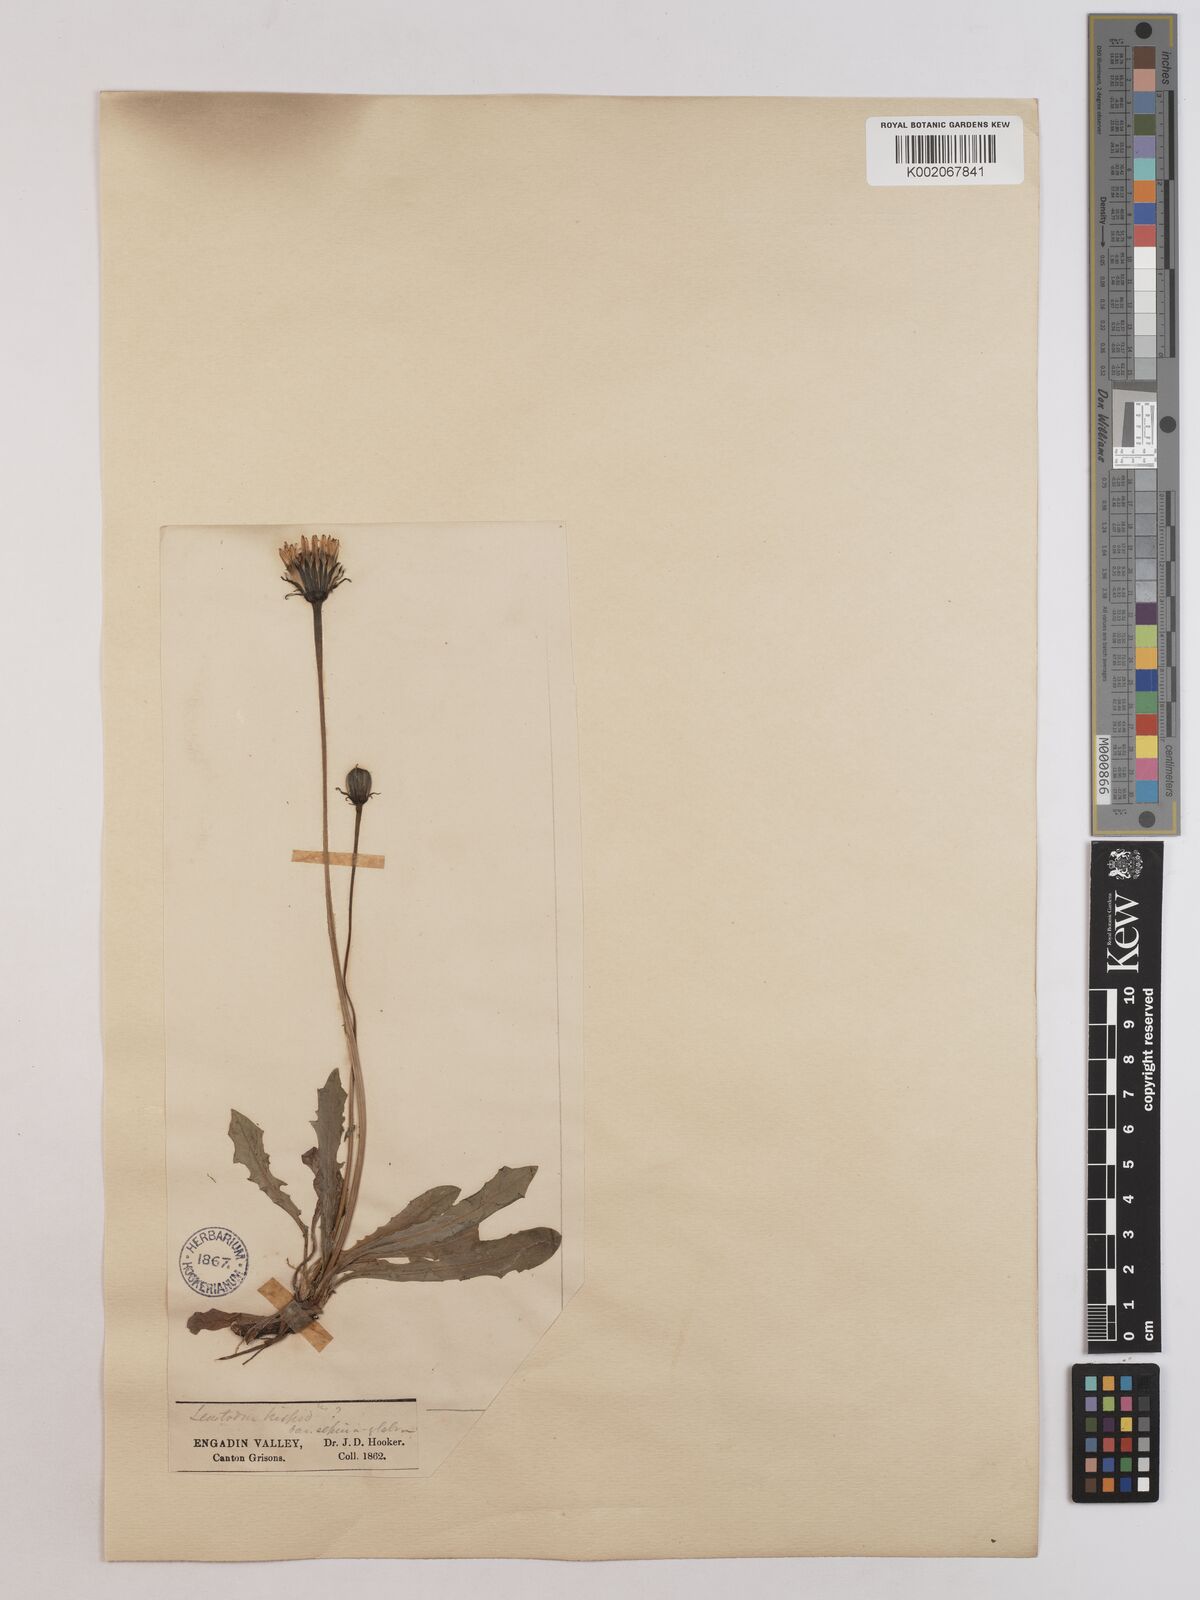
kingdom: Plantae
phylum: Tracheophyta
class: Magnoliopsida
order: Asterales
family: Asteraceae
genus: Leontodon
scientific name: Leontodon
